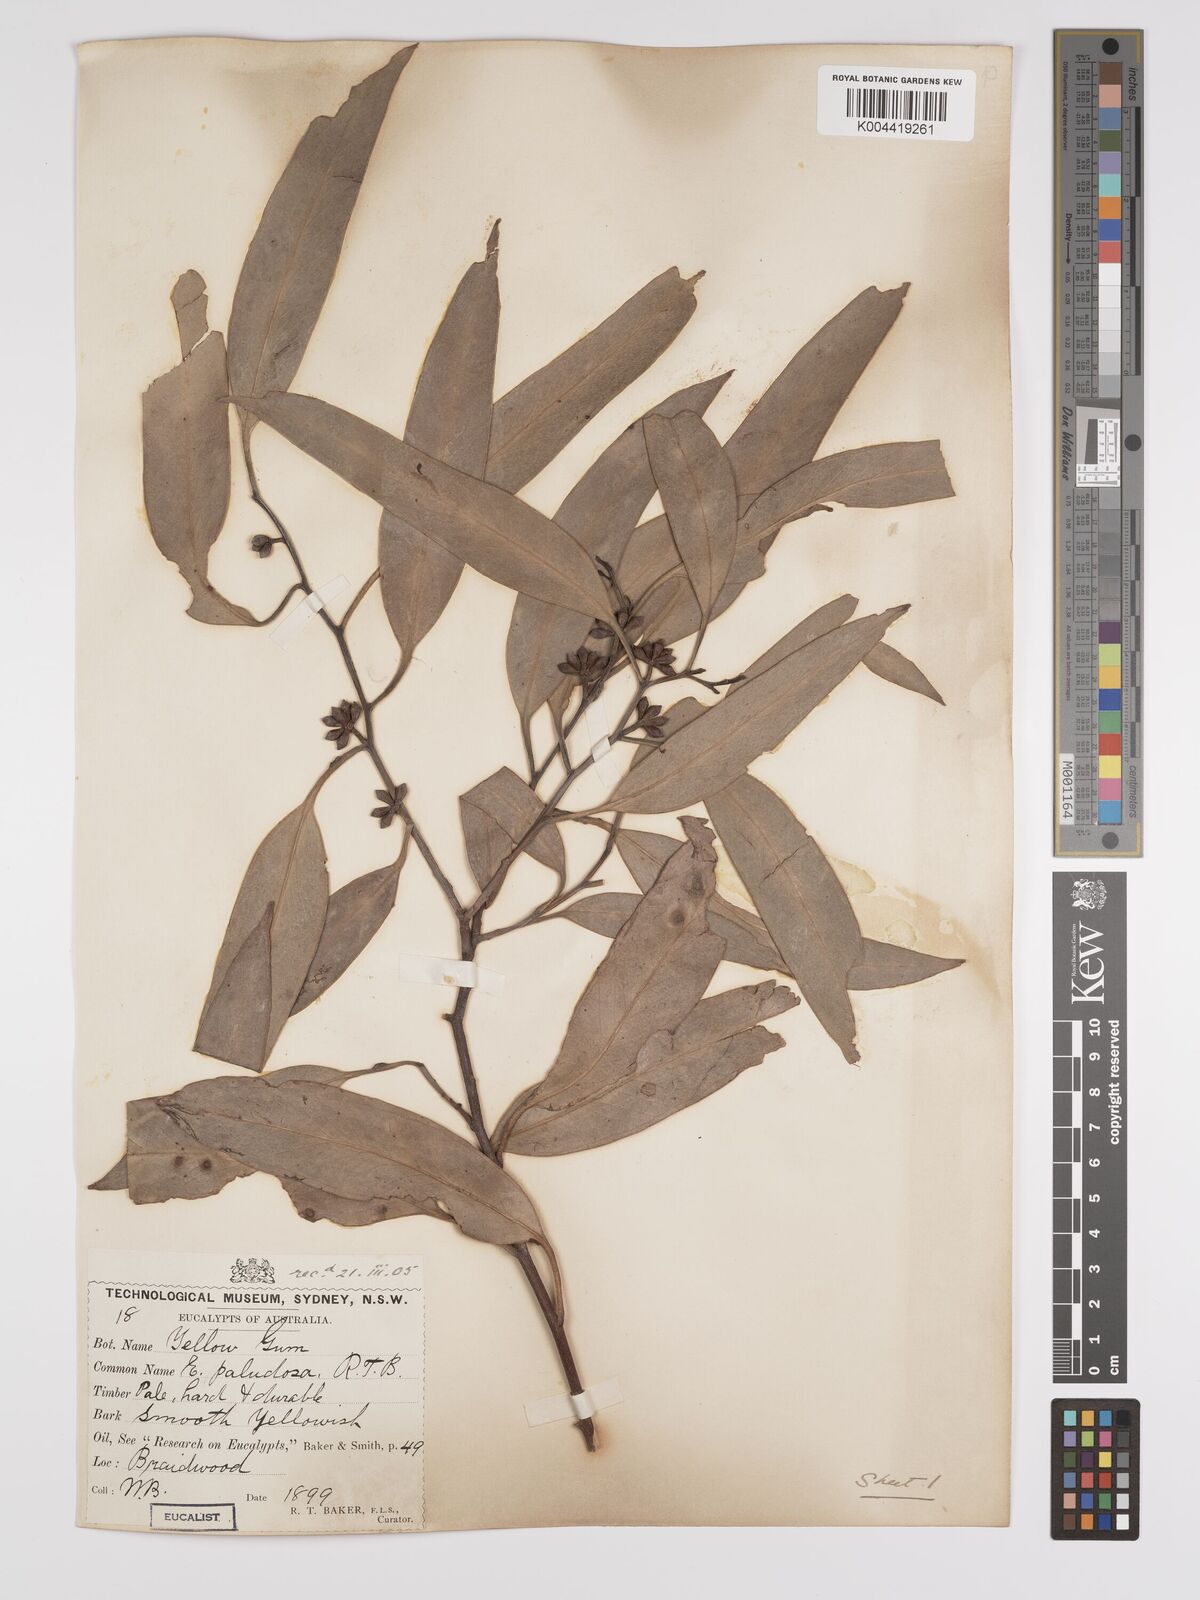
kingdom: Plantae
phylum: Tracheophyta
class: Magnoliopsida
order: Myrtales
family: Myrtaceae
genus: Eucalyptus
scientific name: Eucalyptus ovata
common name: Black-gum
